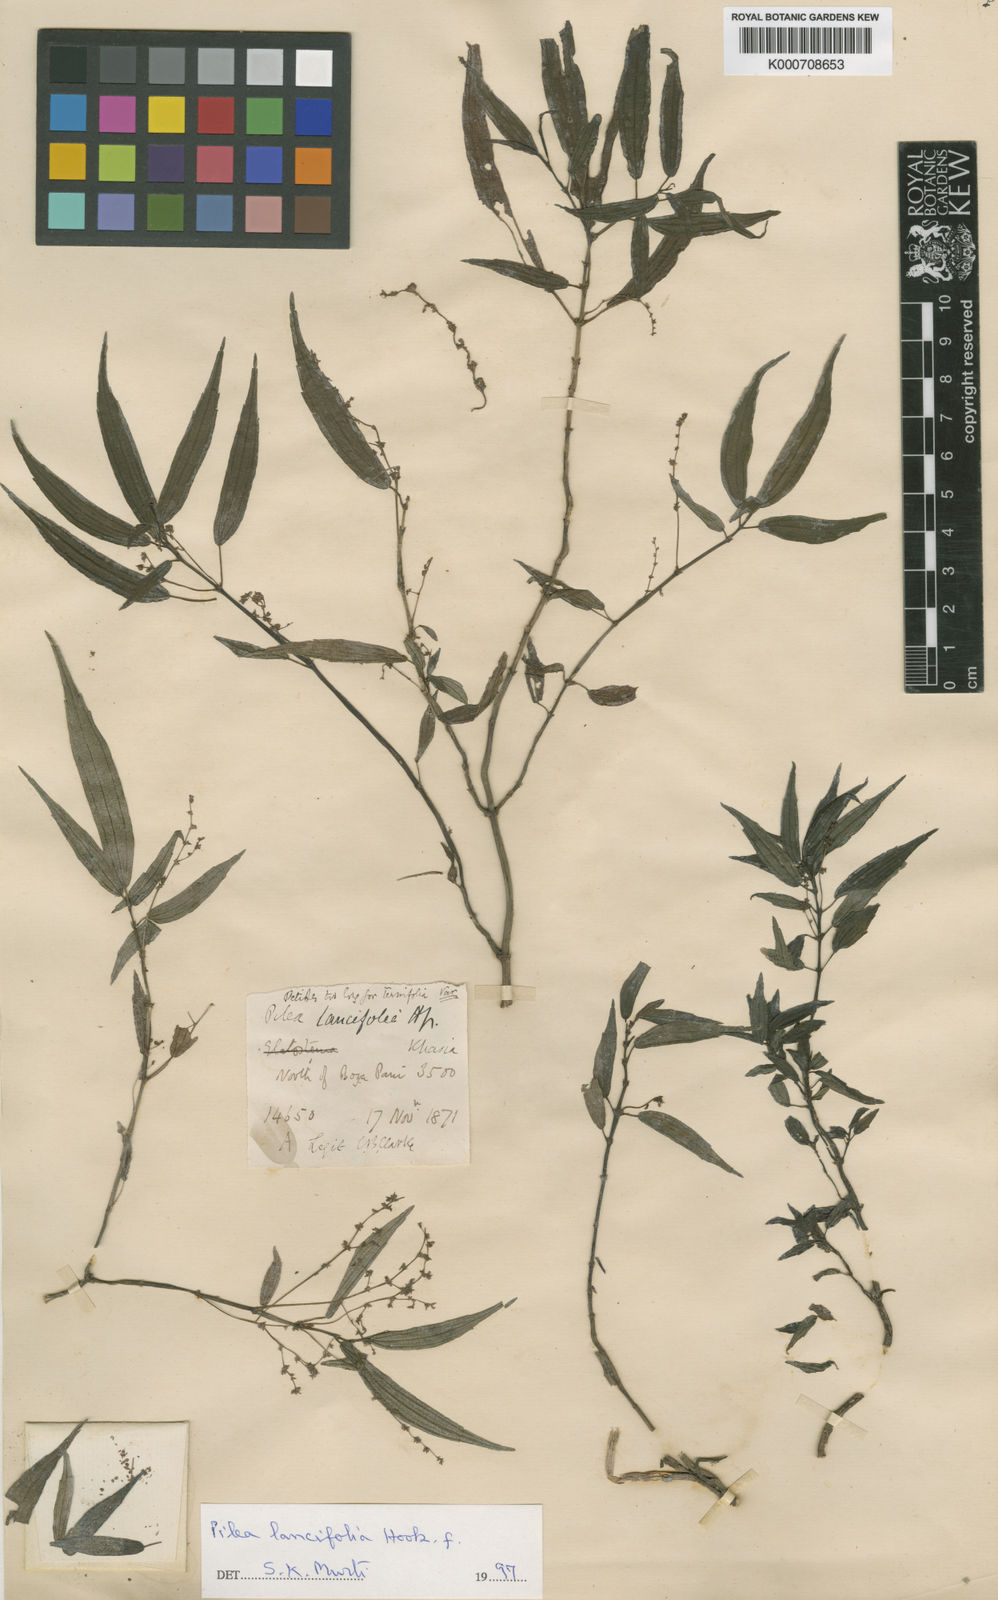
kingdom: Plantae
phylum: Tracheophyta
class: Magnoliopsida
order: Rosales
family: Urticaceae
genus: Pilea
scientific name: Pilea lancifolia
